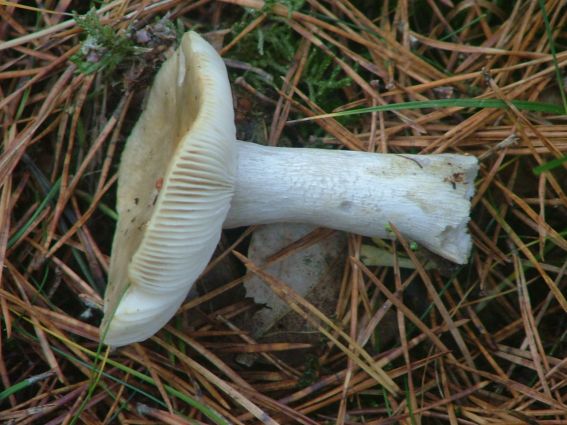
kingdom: Fungi
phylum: Basidiomycota
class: Agaricomycetes
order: Russulales
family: Russulaceae
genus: Russula
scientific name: Russula ochroleuca
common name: okkergul skørhat
